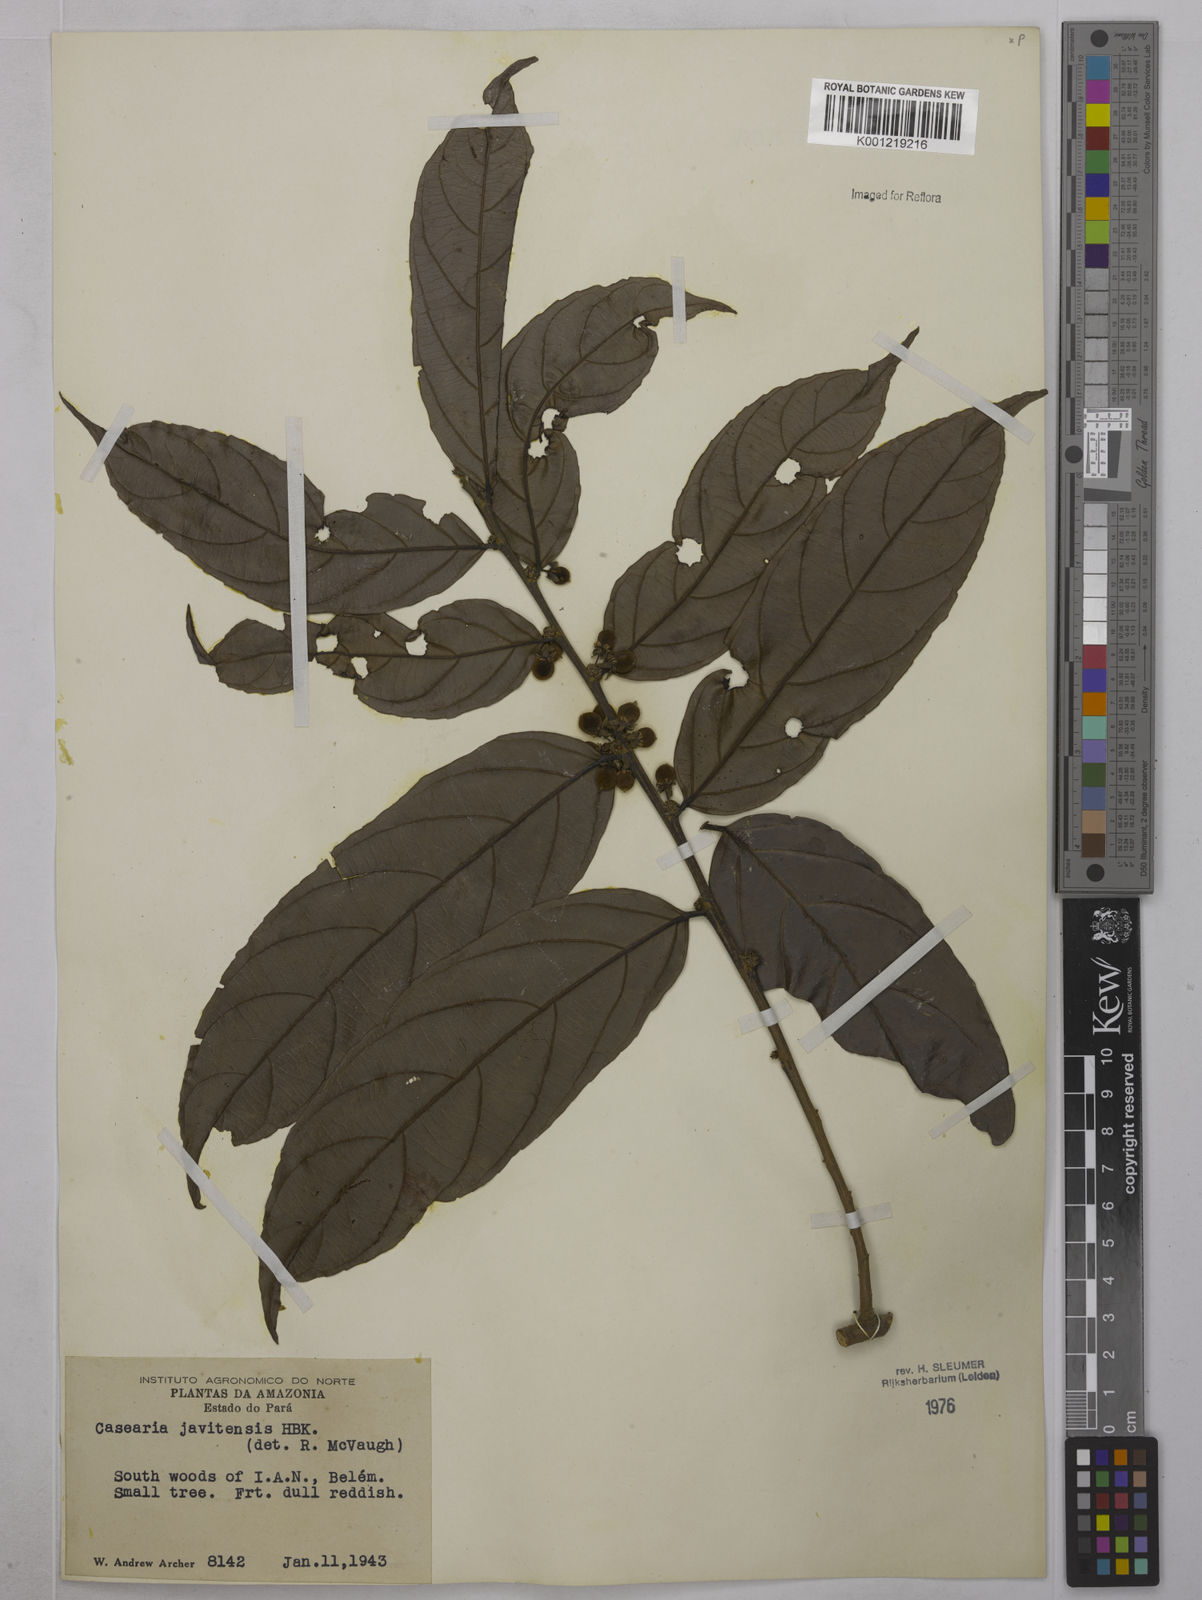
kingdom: Plantae
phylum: Tracheophyta
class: Magnoliopsida
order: Malpighiales
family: Salicaceae
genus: Piparea
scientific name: Piparea multiflora
